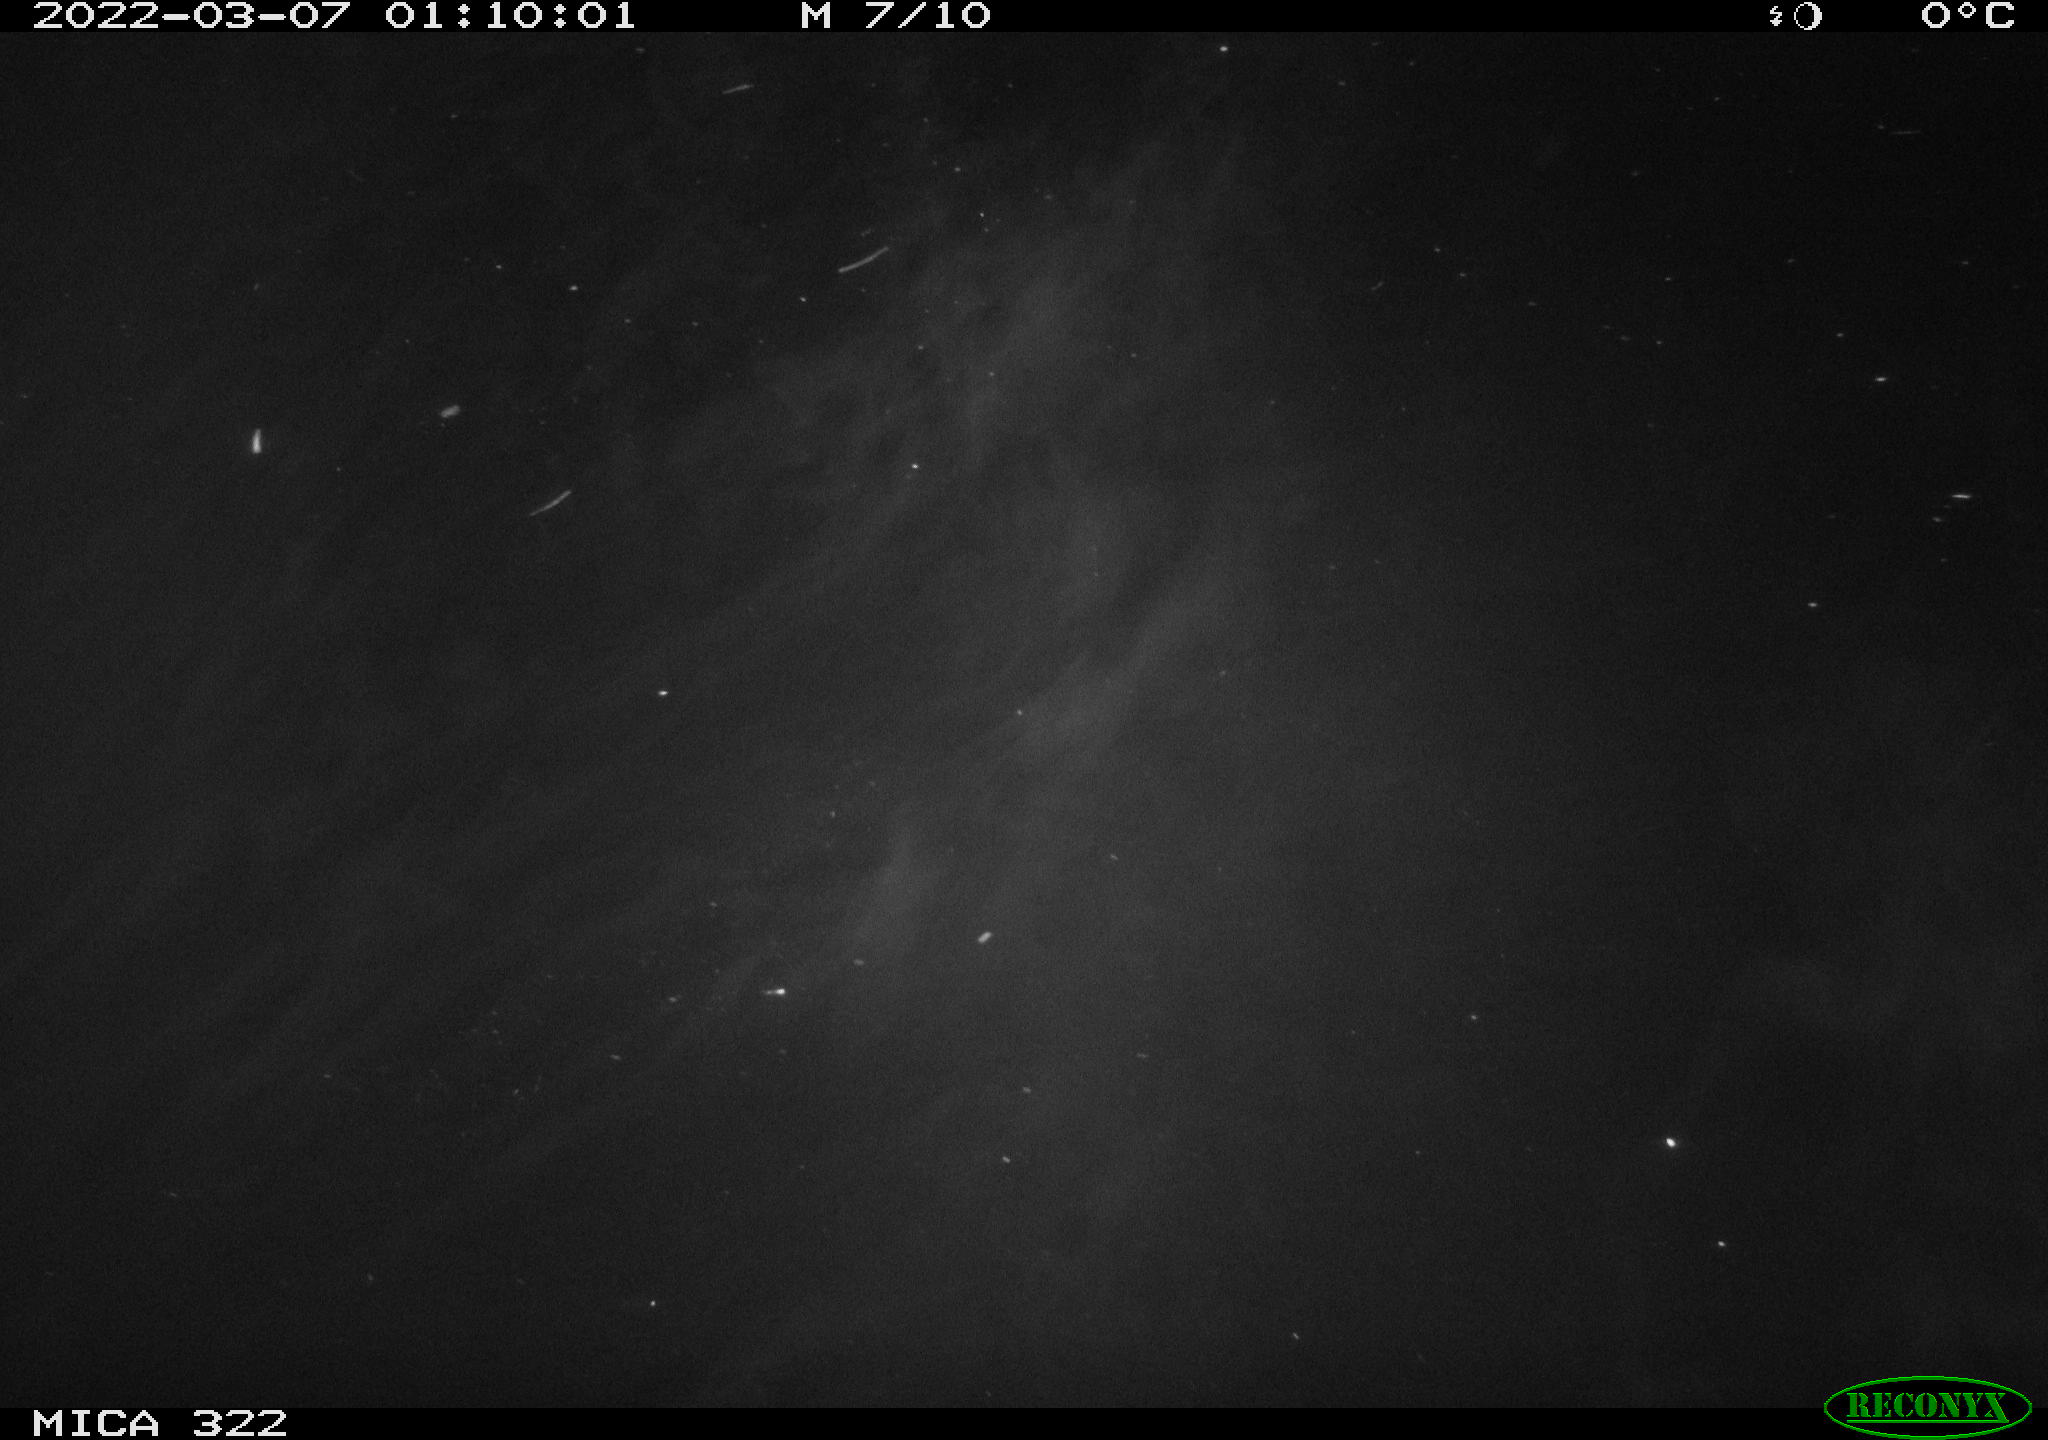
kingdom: Animalia
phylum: Chordata
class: Mammalia
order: Carnivora
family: Mustelidae
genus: Mustela
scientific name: Mustela putorius
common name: European polecat
